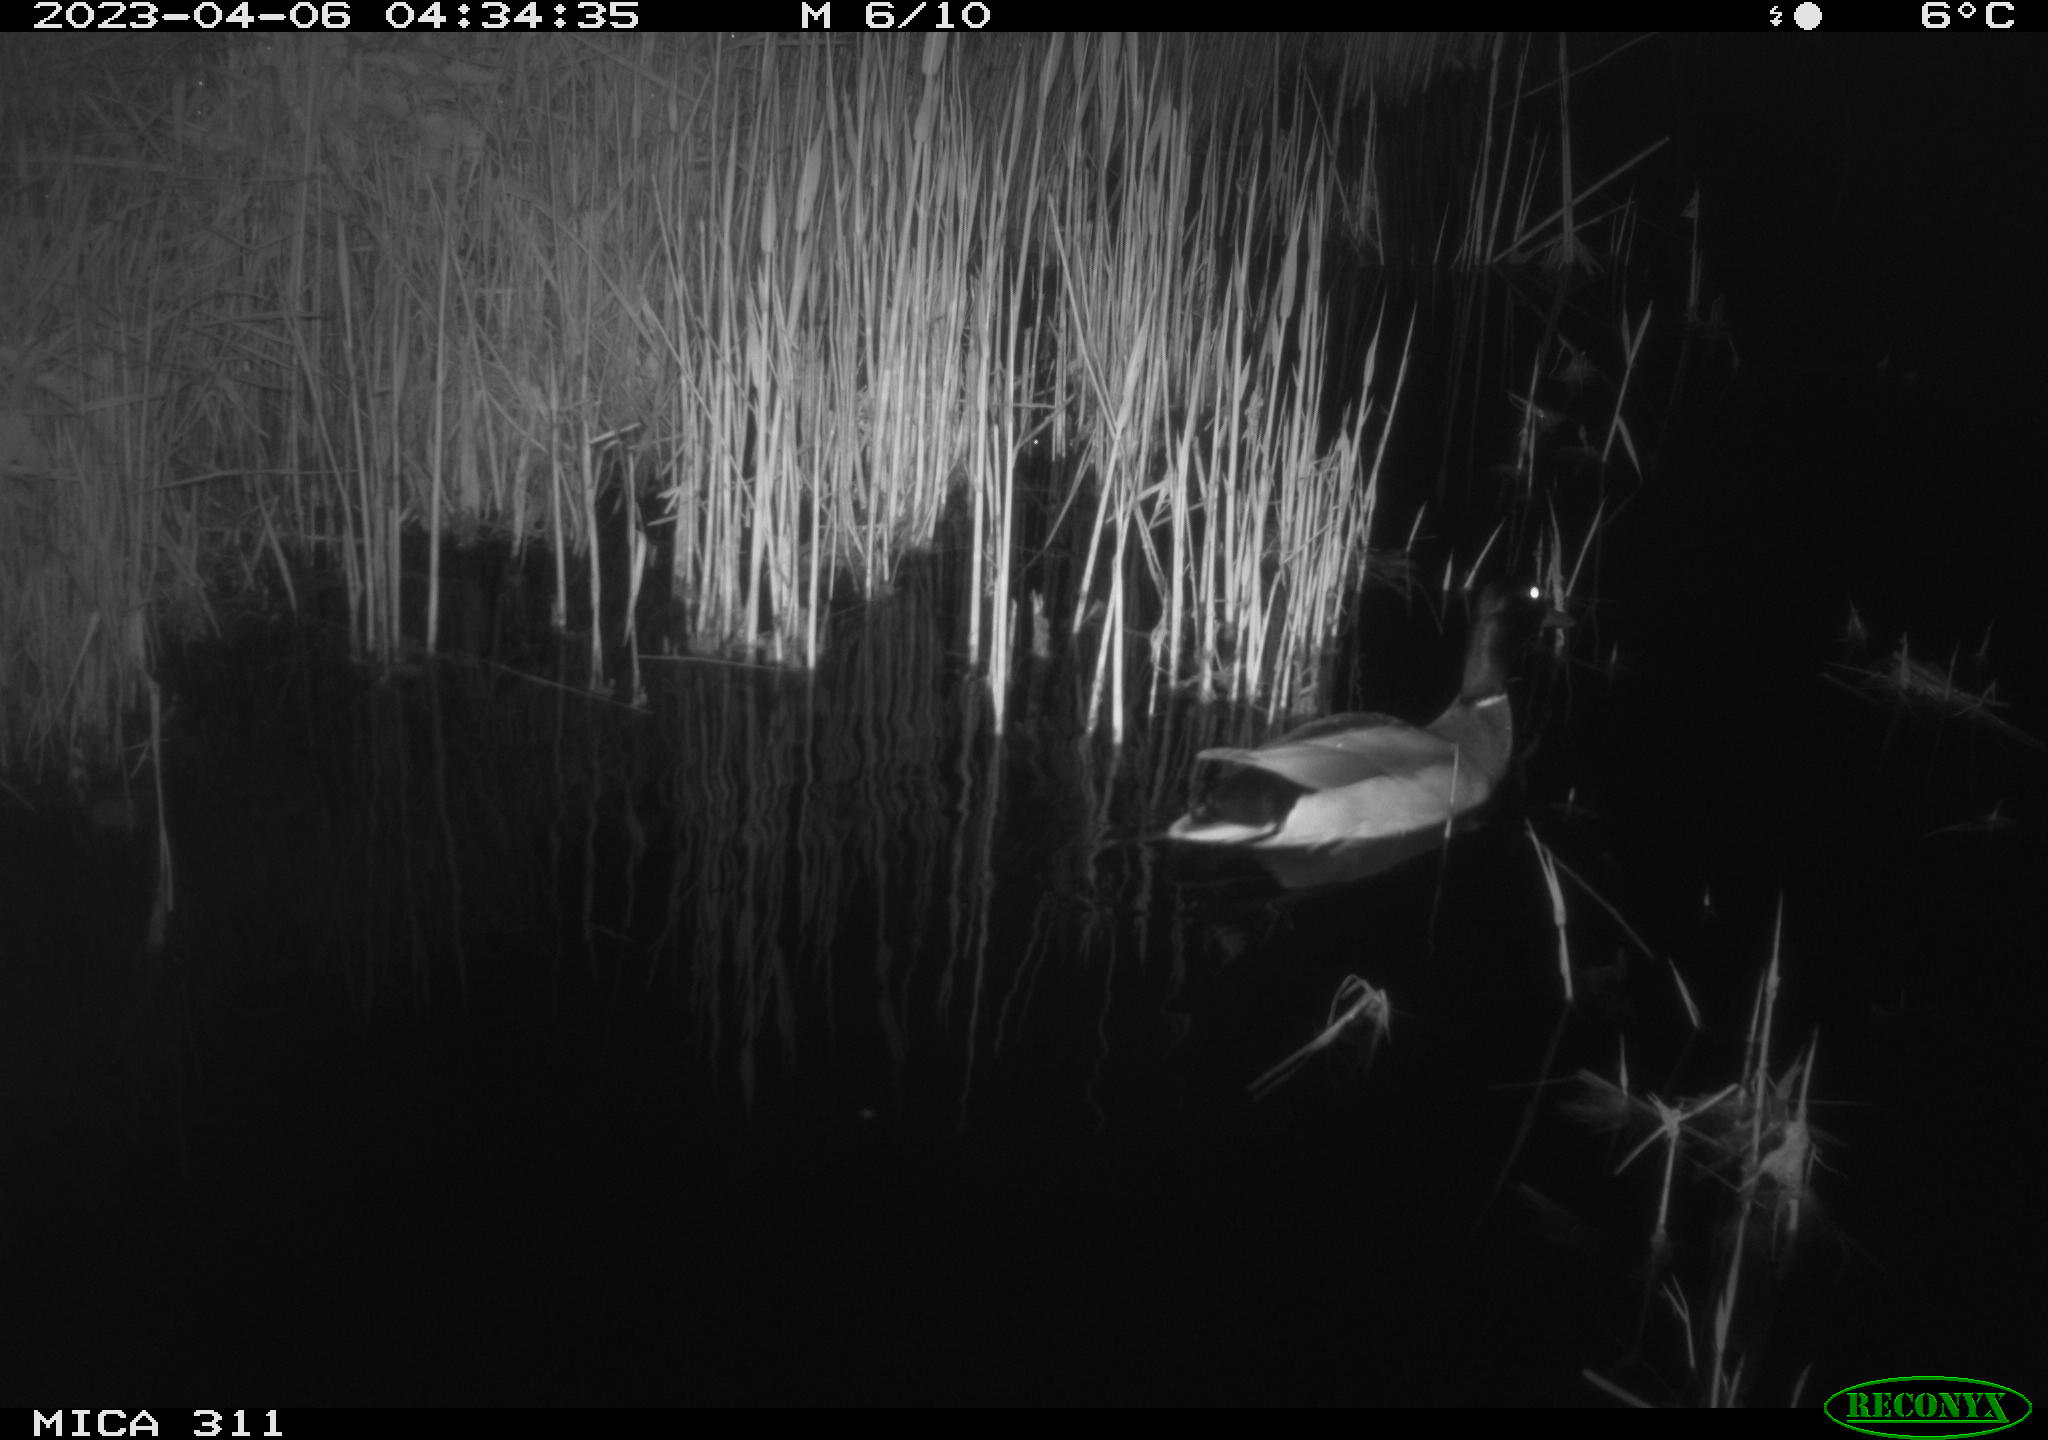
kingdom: Animalia
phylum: Chordata
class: Aves
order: Anseriformes
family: Anatidae
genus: Anas
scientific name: Anas
